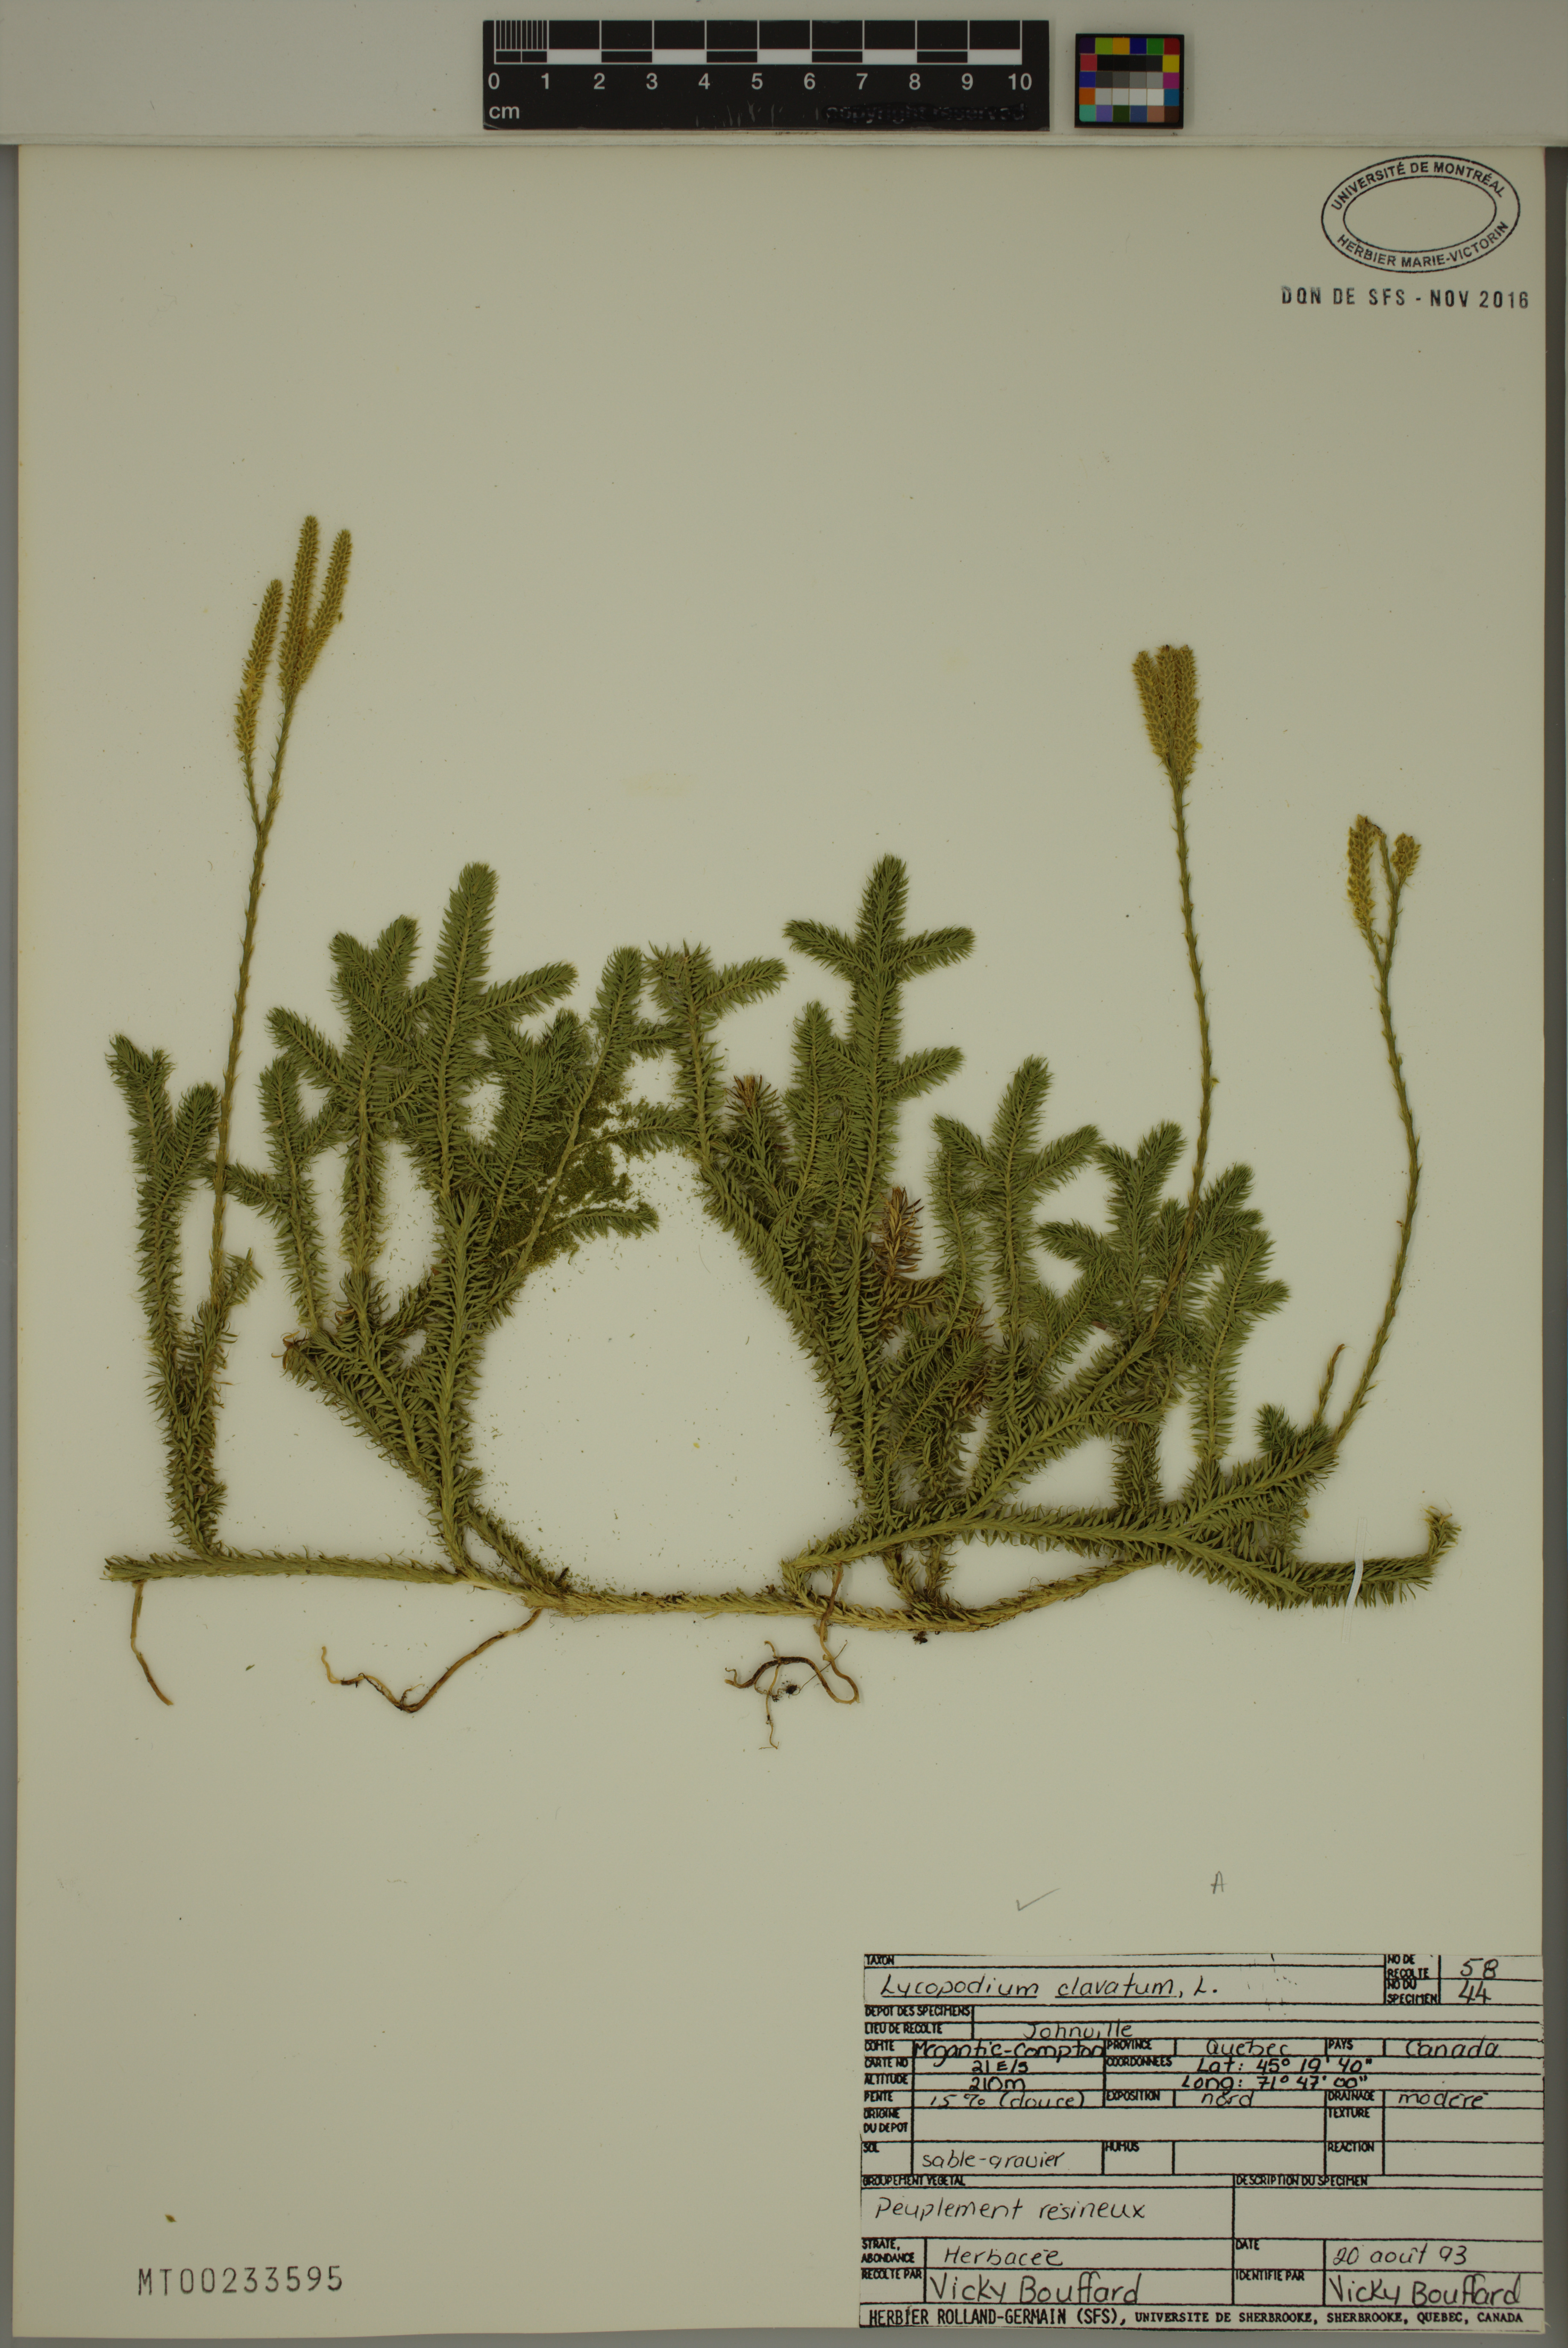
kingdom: Plantae
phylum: Tracheophyta
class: Lycopodiopsida
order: Lycopodiales
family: Lycopodiaceae
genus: Lycopodium
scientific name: Lycopodium clavatum
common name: Stag's-horn clubmoss
